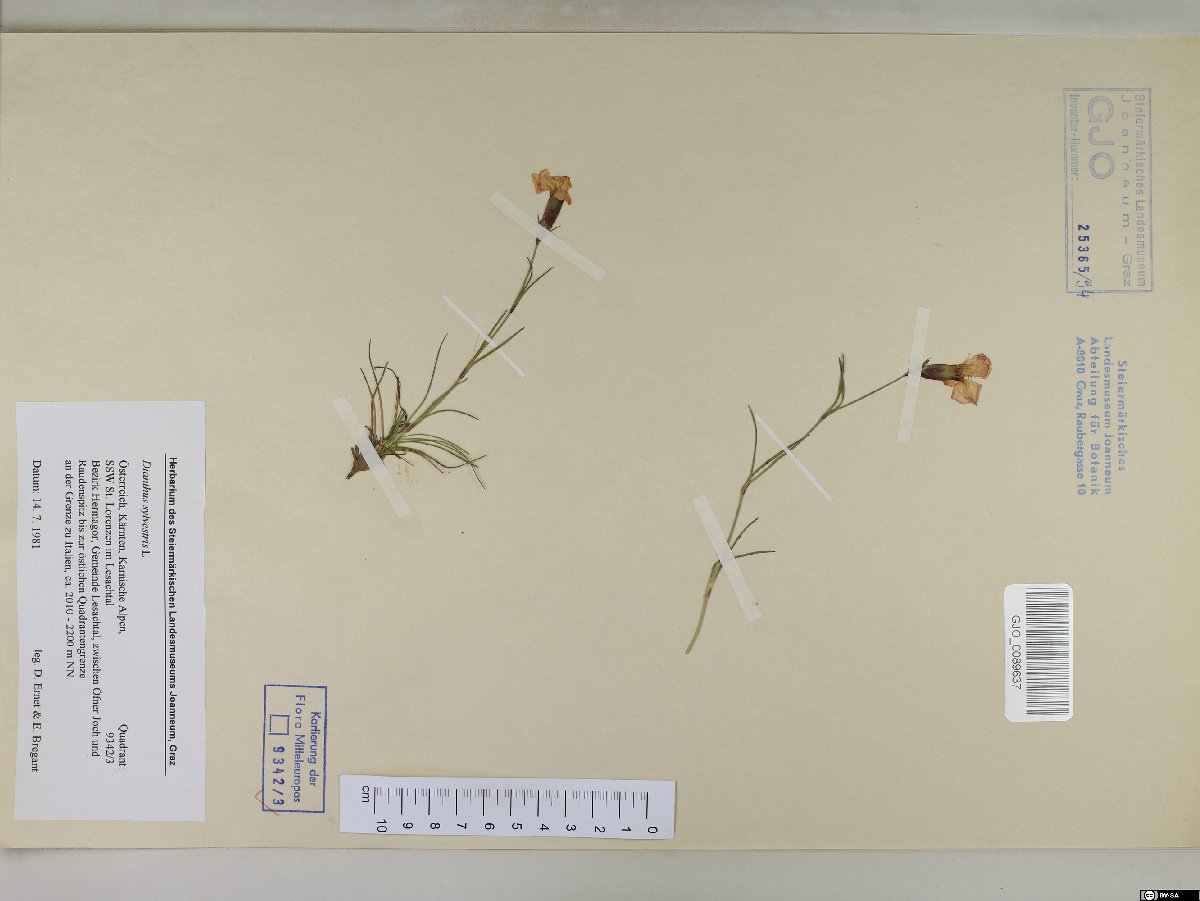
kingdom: Plantae
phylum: Tracheophyta
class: Magnoliopsida
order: Caryophyllales
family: Caryophyllaceae
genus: Dianthus
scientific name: Dianthus sylvestris
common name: Wood pink
